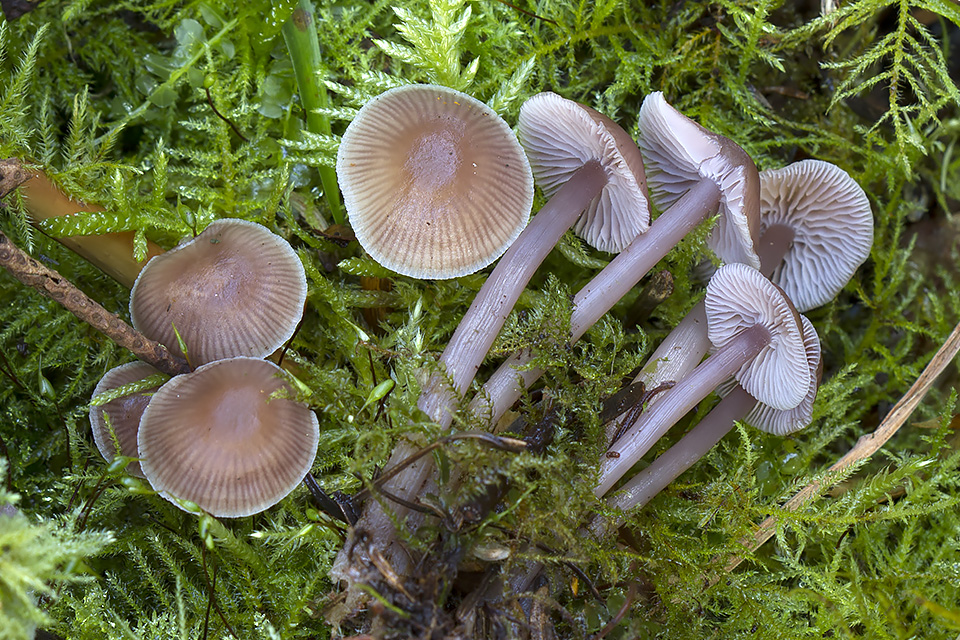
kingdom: Fungi
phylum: Basidiomycota
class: Agaricomycetes
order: Agaricales
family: Mycenaceae
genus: Mycena
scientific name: Mycena pearsoniana
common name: lillabrun huesvamp
